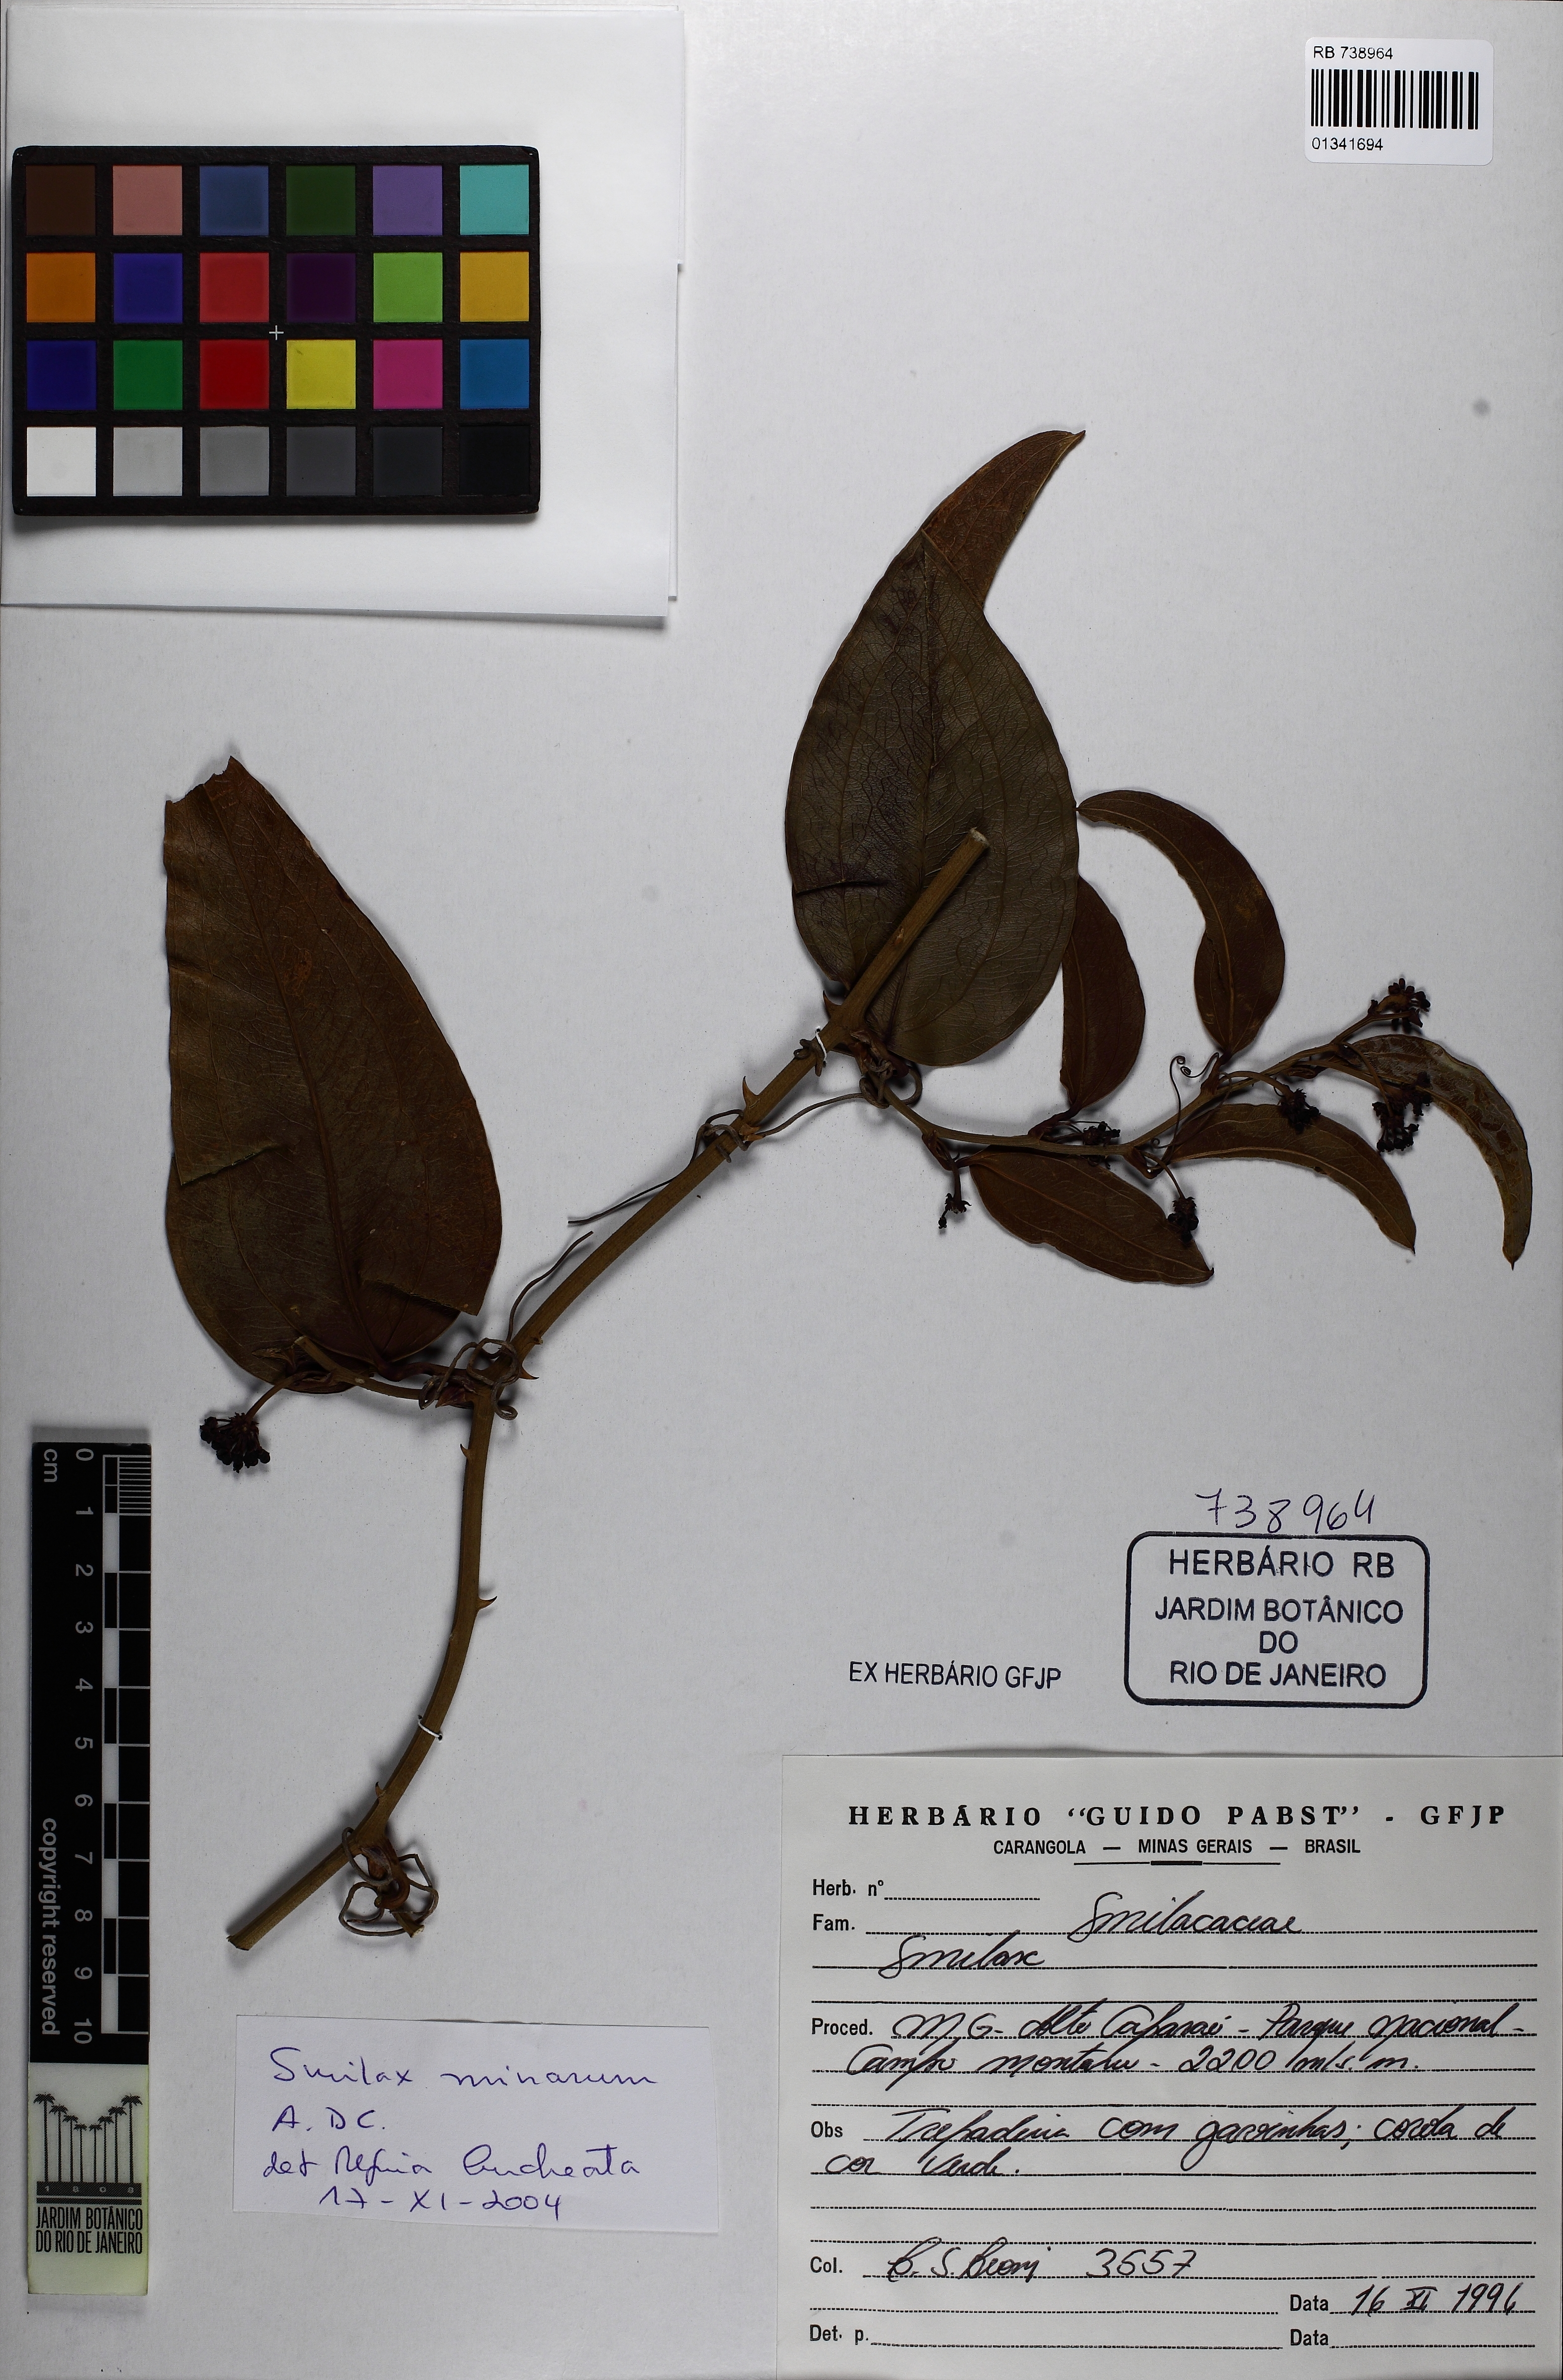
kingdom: Plantae
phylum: Tracheophyta
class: Liliopsida
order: Liliales
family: Smilacaceae
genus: Smilax
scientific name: Smilax minarum
